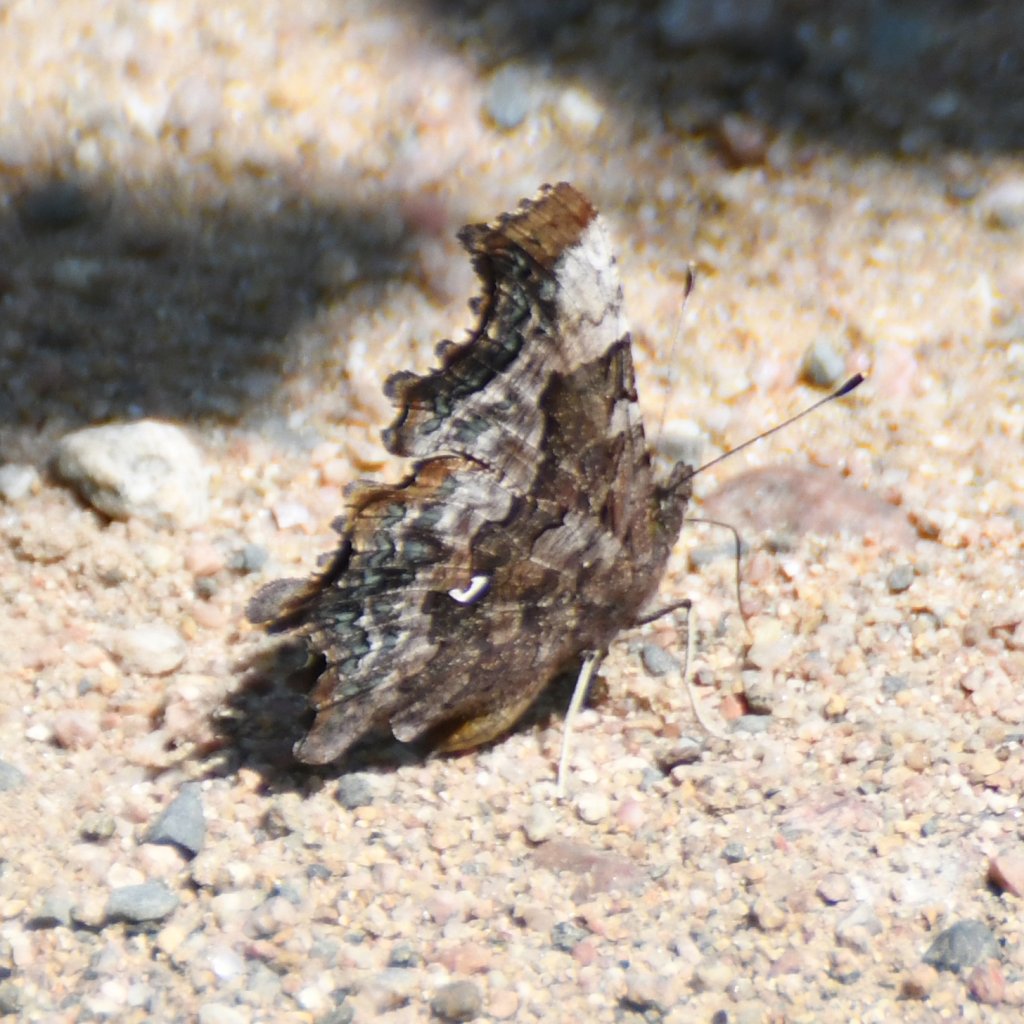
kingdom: Animalia
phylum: Arthropoda
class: Insecta
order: Lepidoptera
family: Nymphalidae
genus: Polygonia
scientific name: Polygonia faunus
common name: Green Comma
